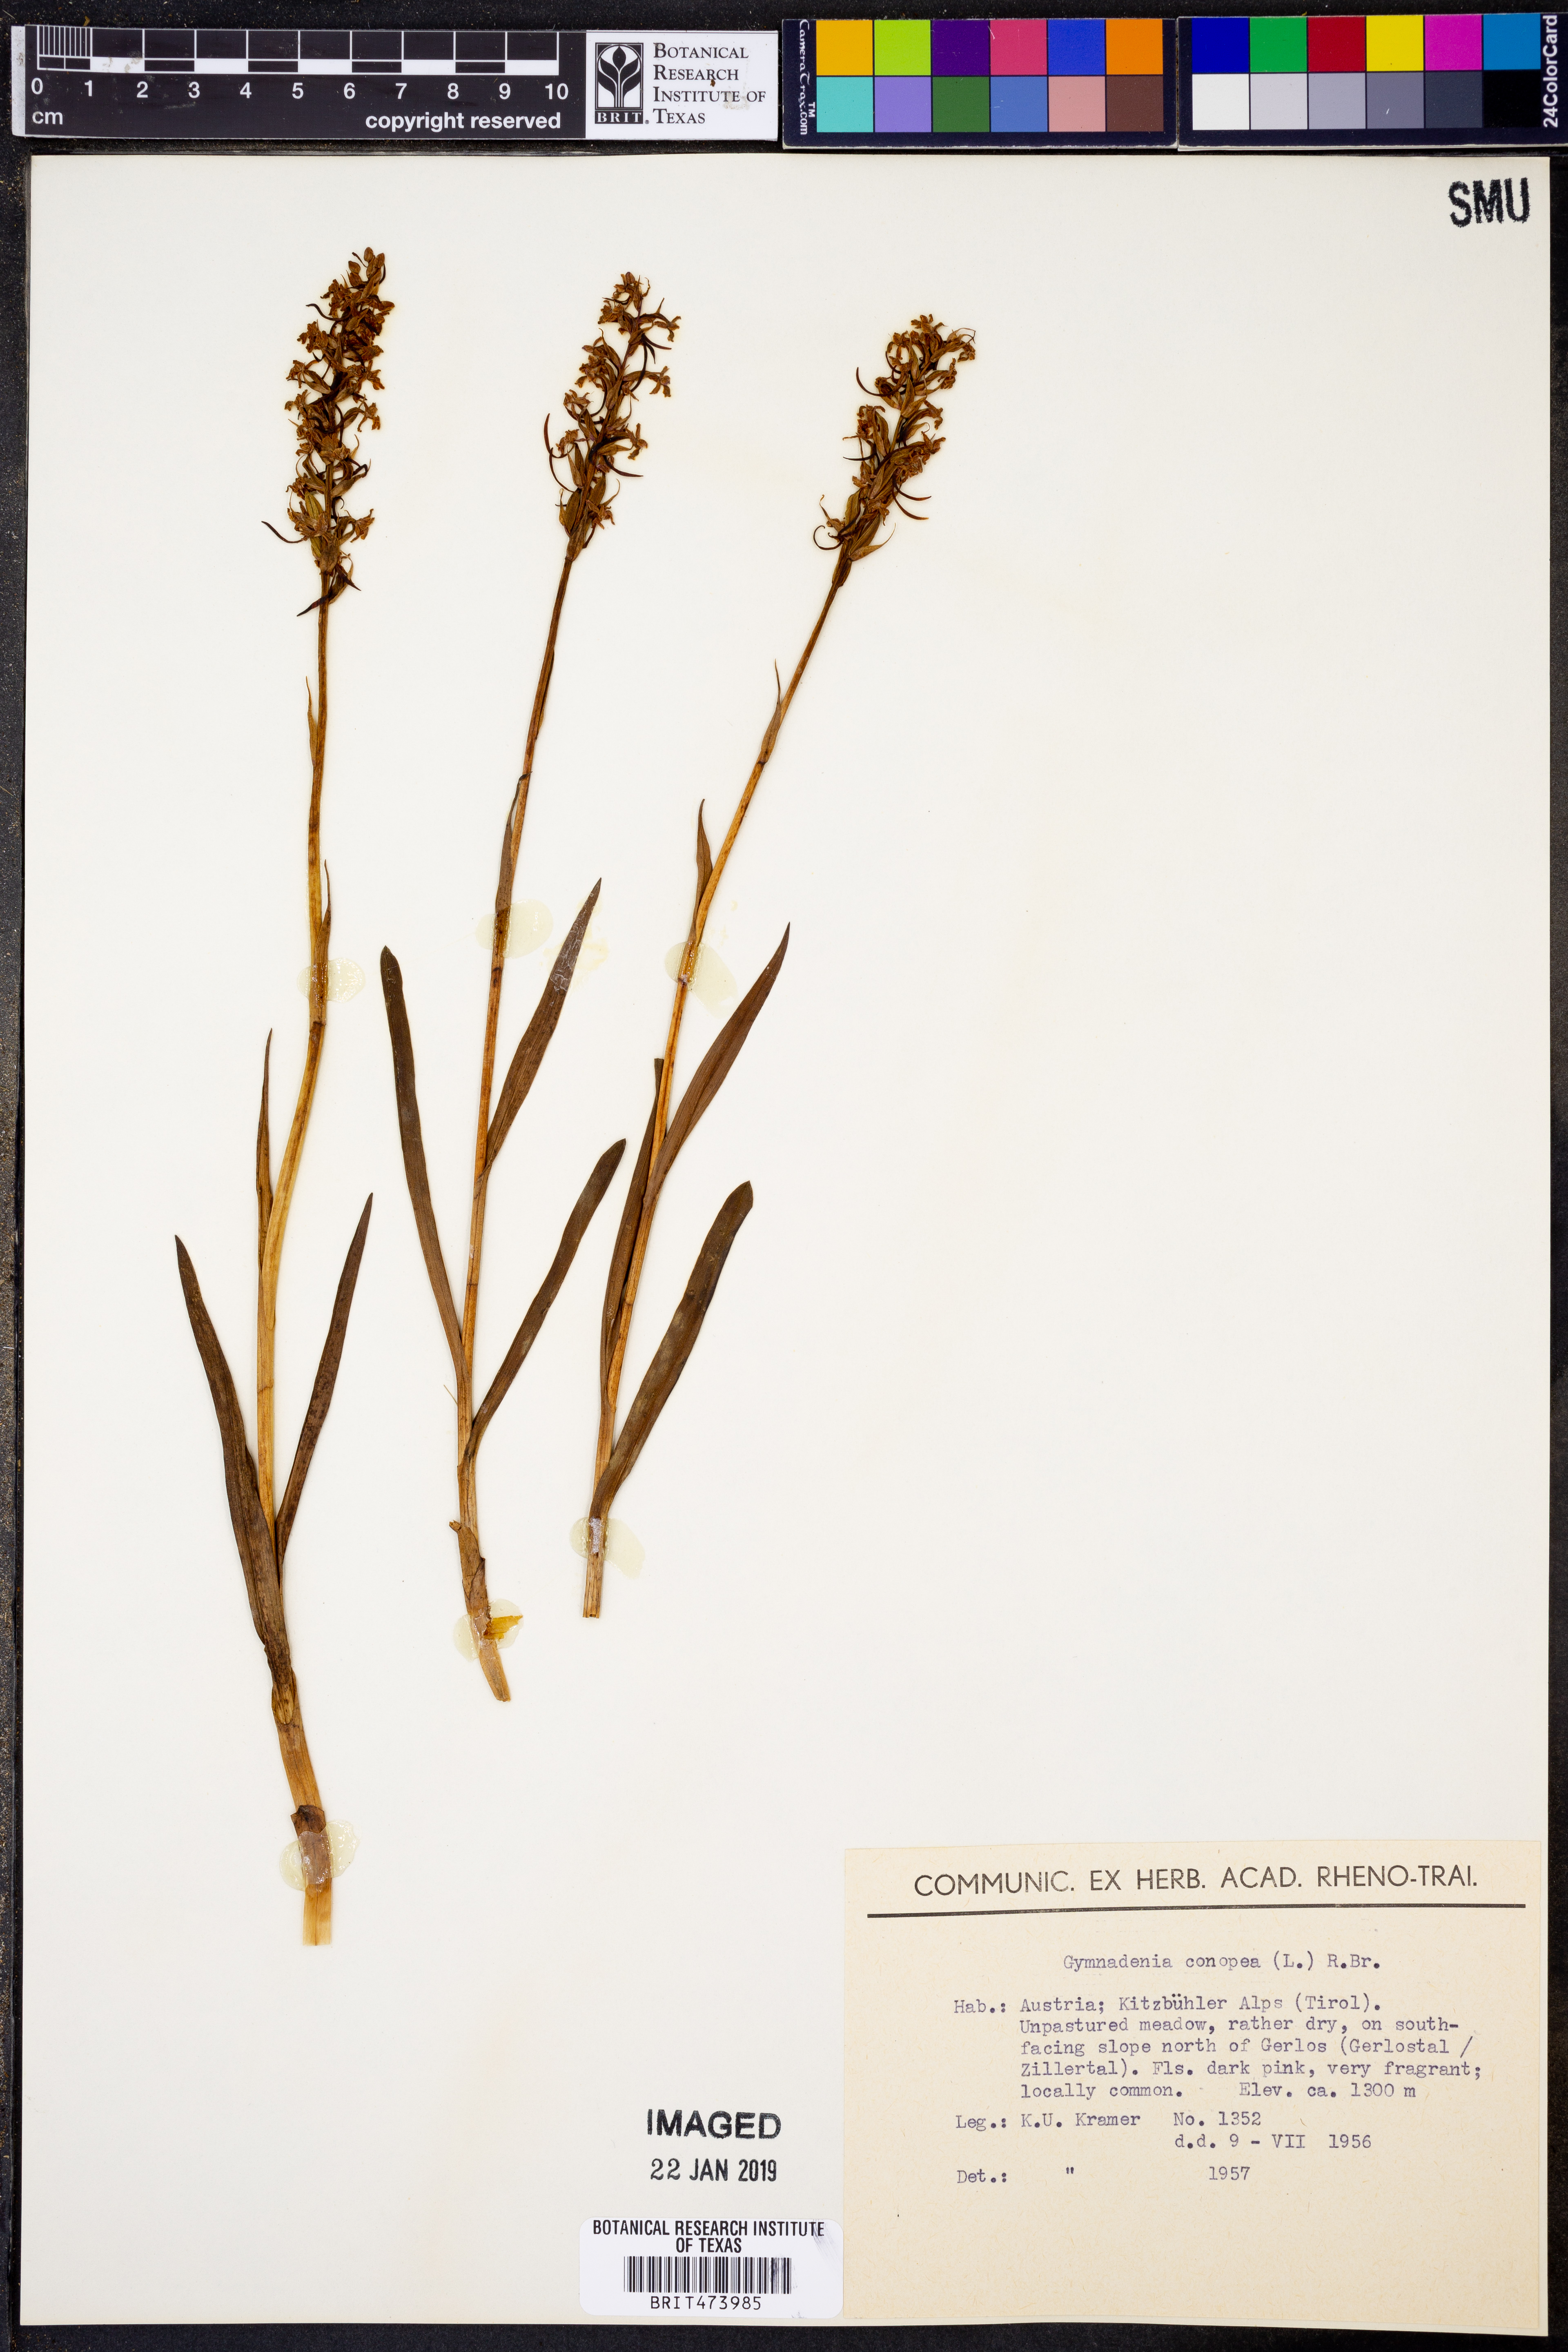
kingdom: Plantae
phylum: Tracheophyta
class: Liliopsida
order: Asparagales
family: Orchidaceae
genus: Gymnadenia
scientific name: Gymnadenia conopea
